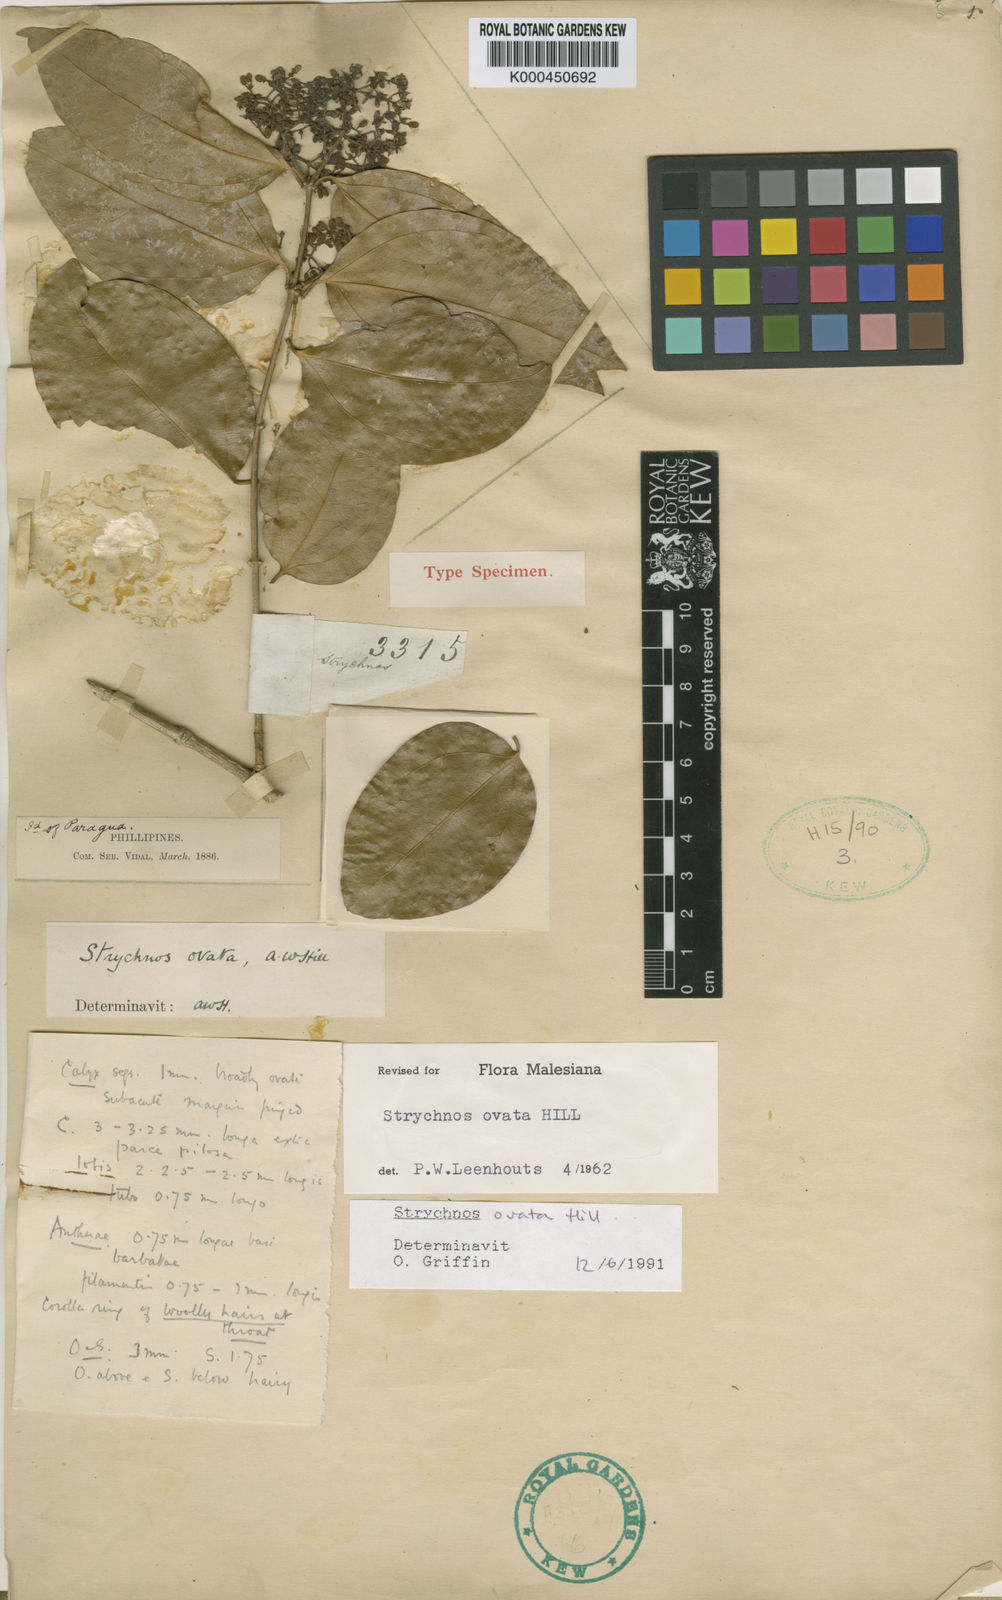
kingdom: Plantae
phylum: Tracheophyta
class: Magnoliopsida
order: Gentianales
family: Loganiaceae
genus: Strychnos
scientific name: Strychnos ovata
